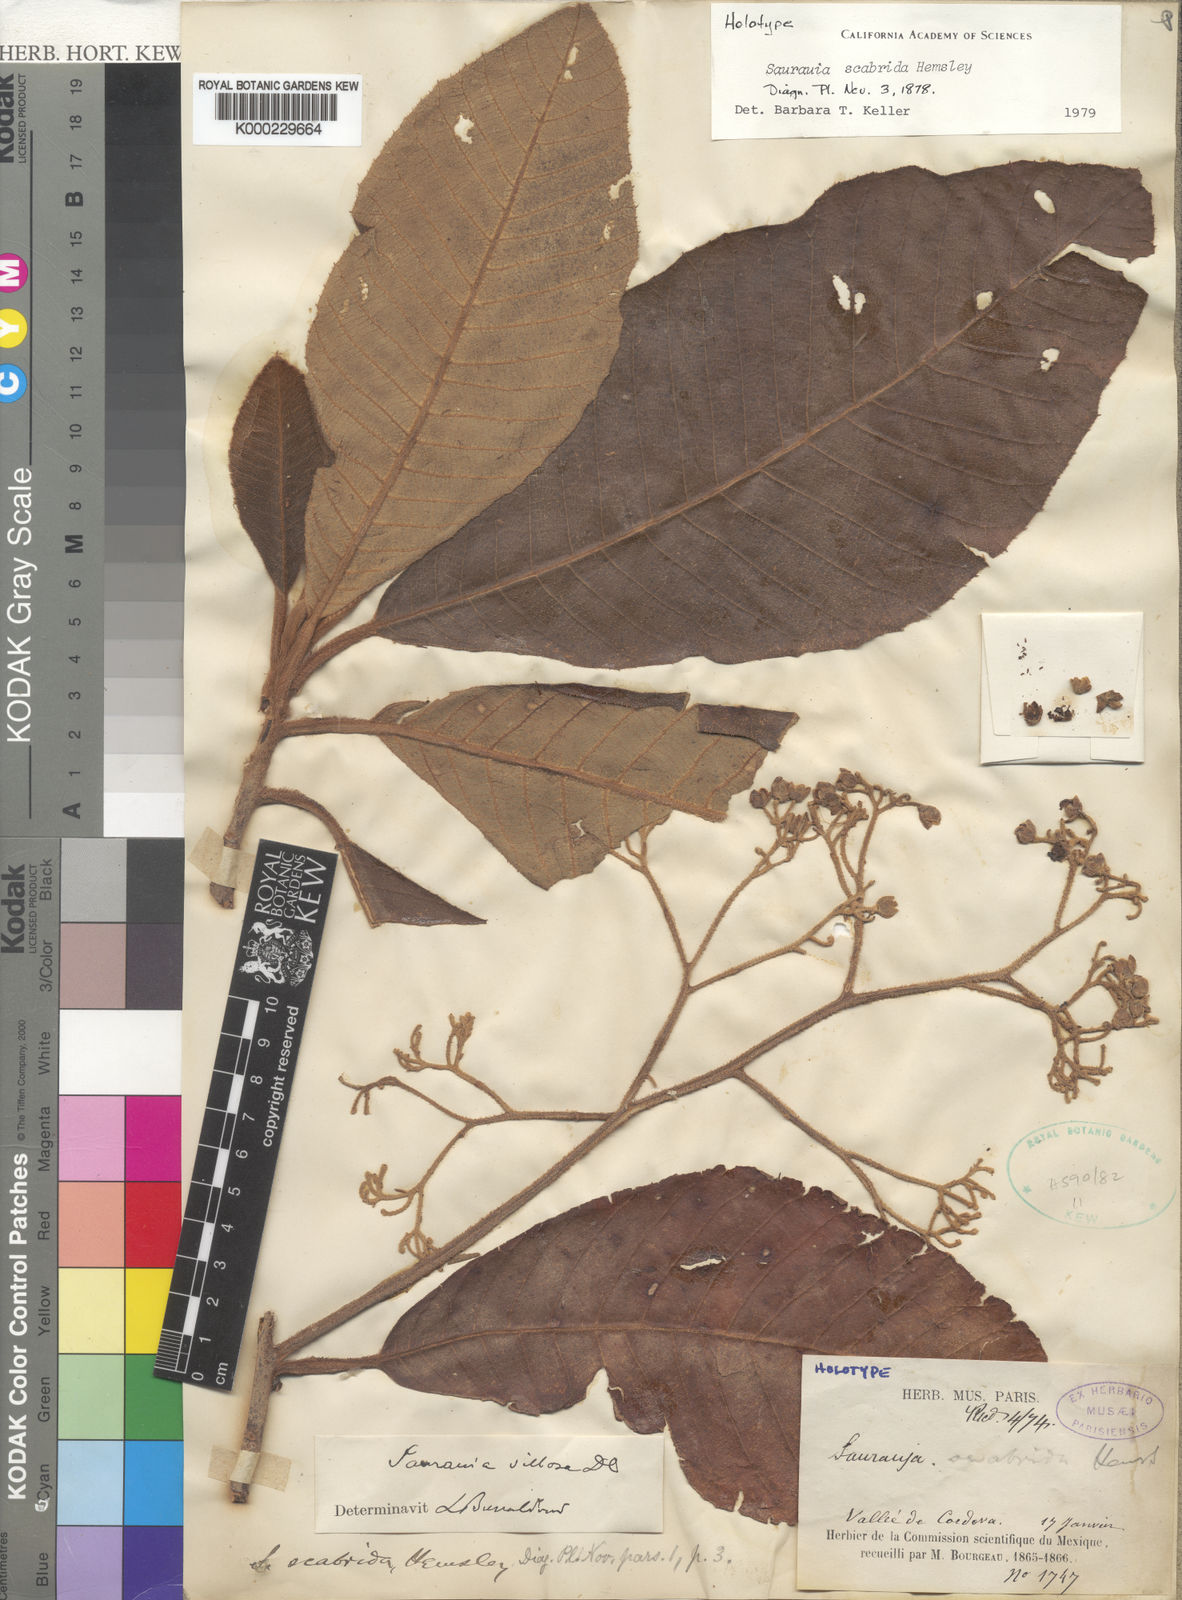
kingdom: Plantae
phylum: Tracheophyta
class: Magnoliopsida
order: Ericales
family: Actinidiaceae
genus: Saurauia
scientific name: Saurauia scabrida
